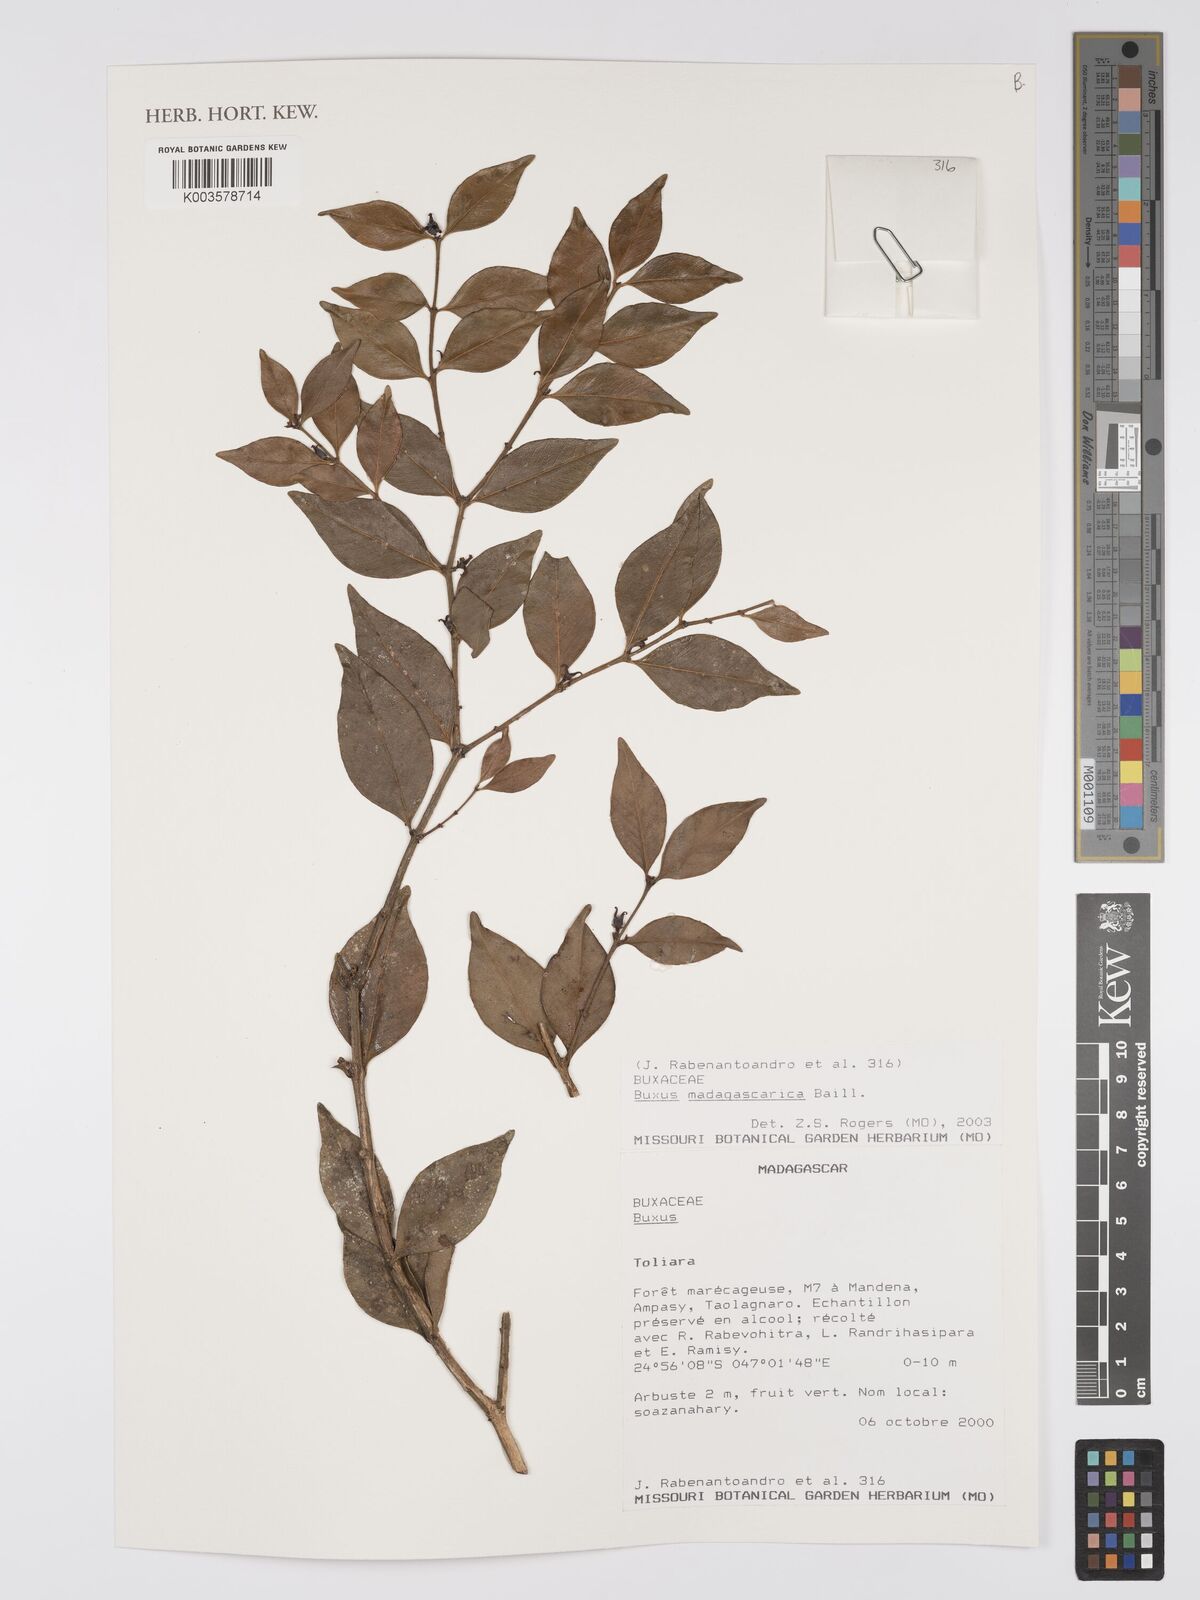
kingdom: Plantae
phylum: Tracheophyta
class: Magnoliopsida
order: Buxales
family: Buxaceae
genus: Buxus
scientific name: Buxus madagascarica
